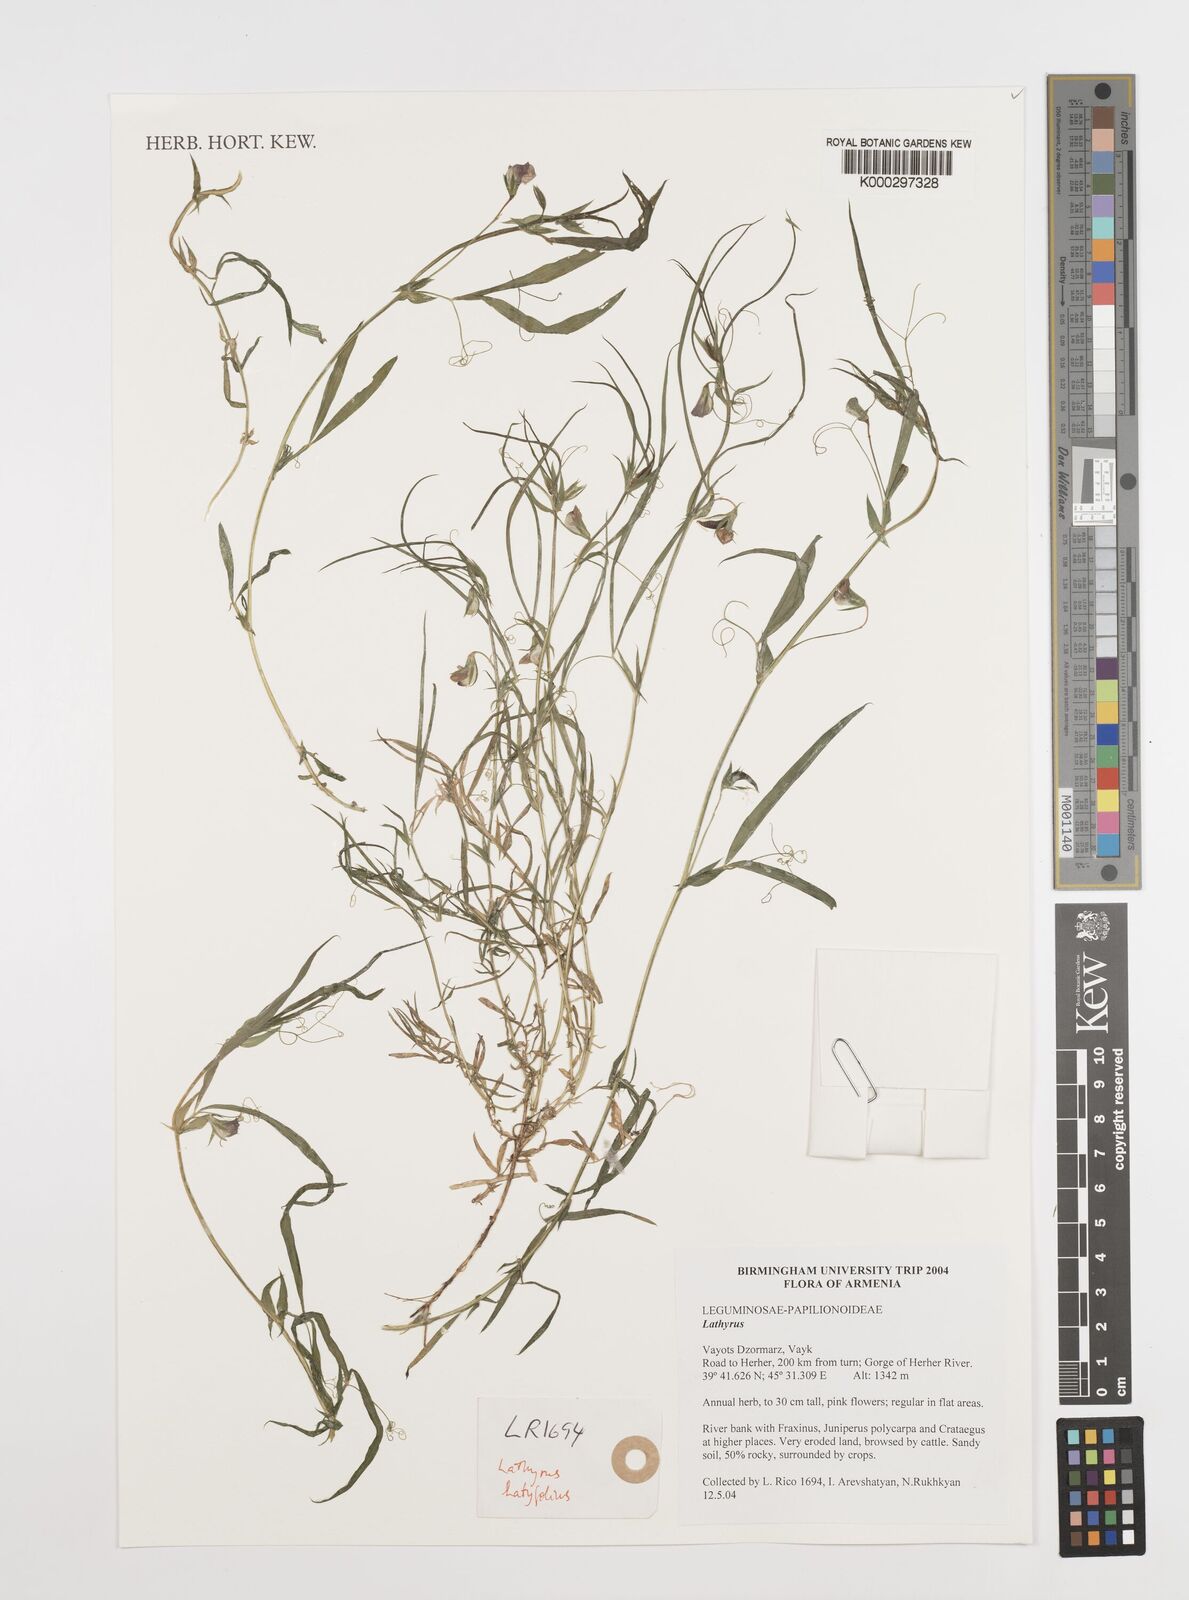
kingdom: Plantae
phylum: Tracheophyta
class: Magnoliopsida
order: Fabales
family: Fabaceae
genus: Lathyrus
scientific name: Lathyrus
